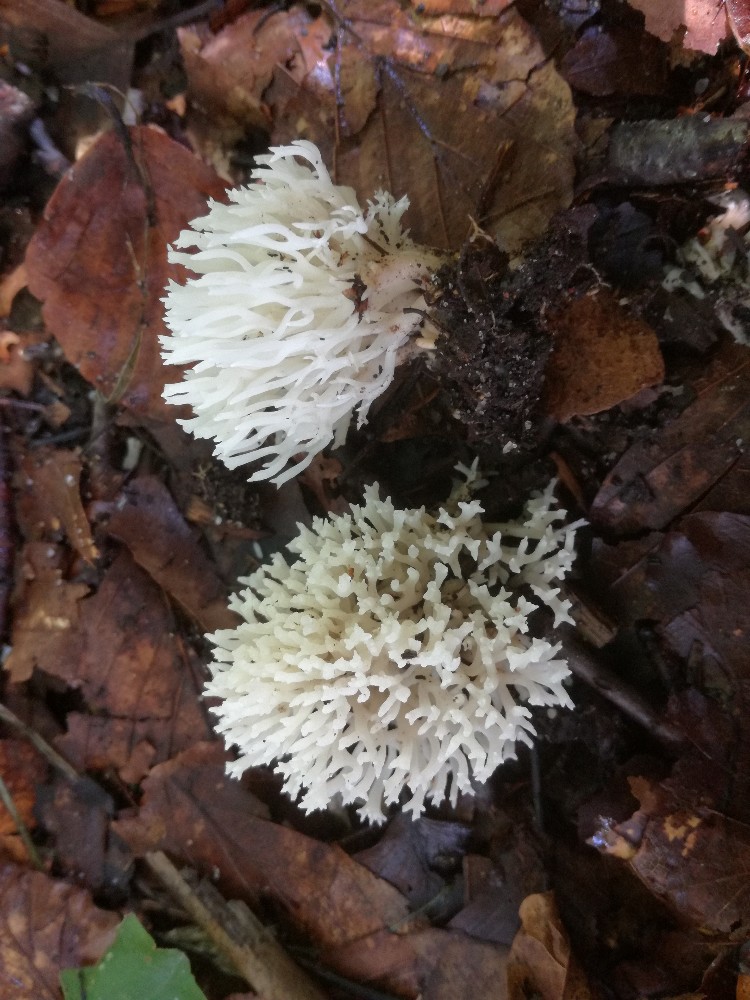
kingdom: Fungi
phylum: Basidiomycota
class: Agaricomycetes
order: Agaricales
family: Clavariaceae
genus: Ramariopsis
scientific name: Ramariopsis kunzei
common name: mangegrenet køllesvamp
